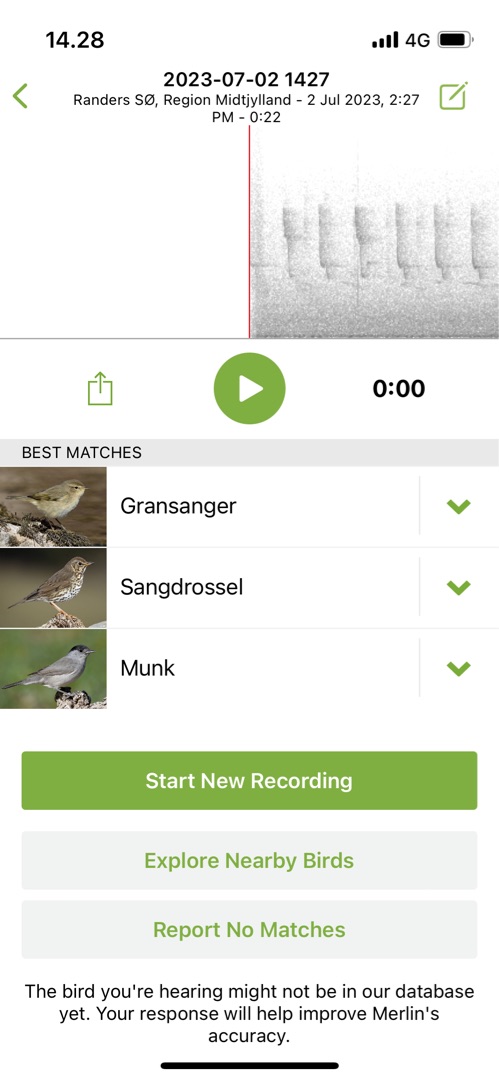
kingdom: Animalia
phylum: Chordata
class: Aves
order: Passeriformes
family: Phylloscopidae
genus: Phylloscopus
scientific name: Phylloscopus collybita
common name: Gransanger
